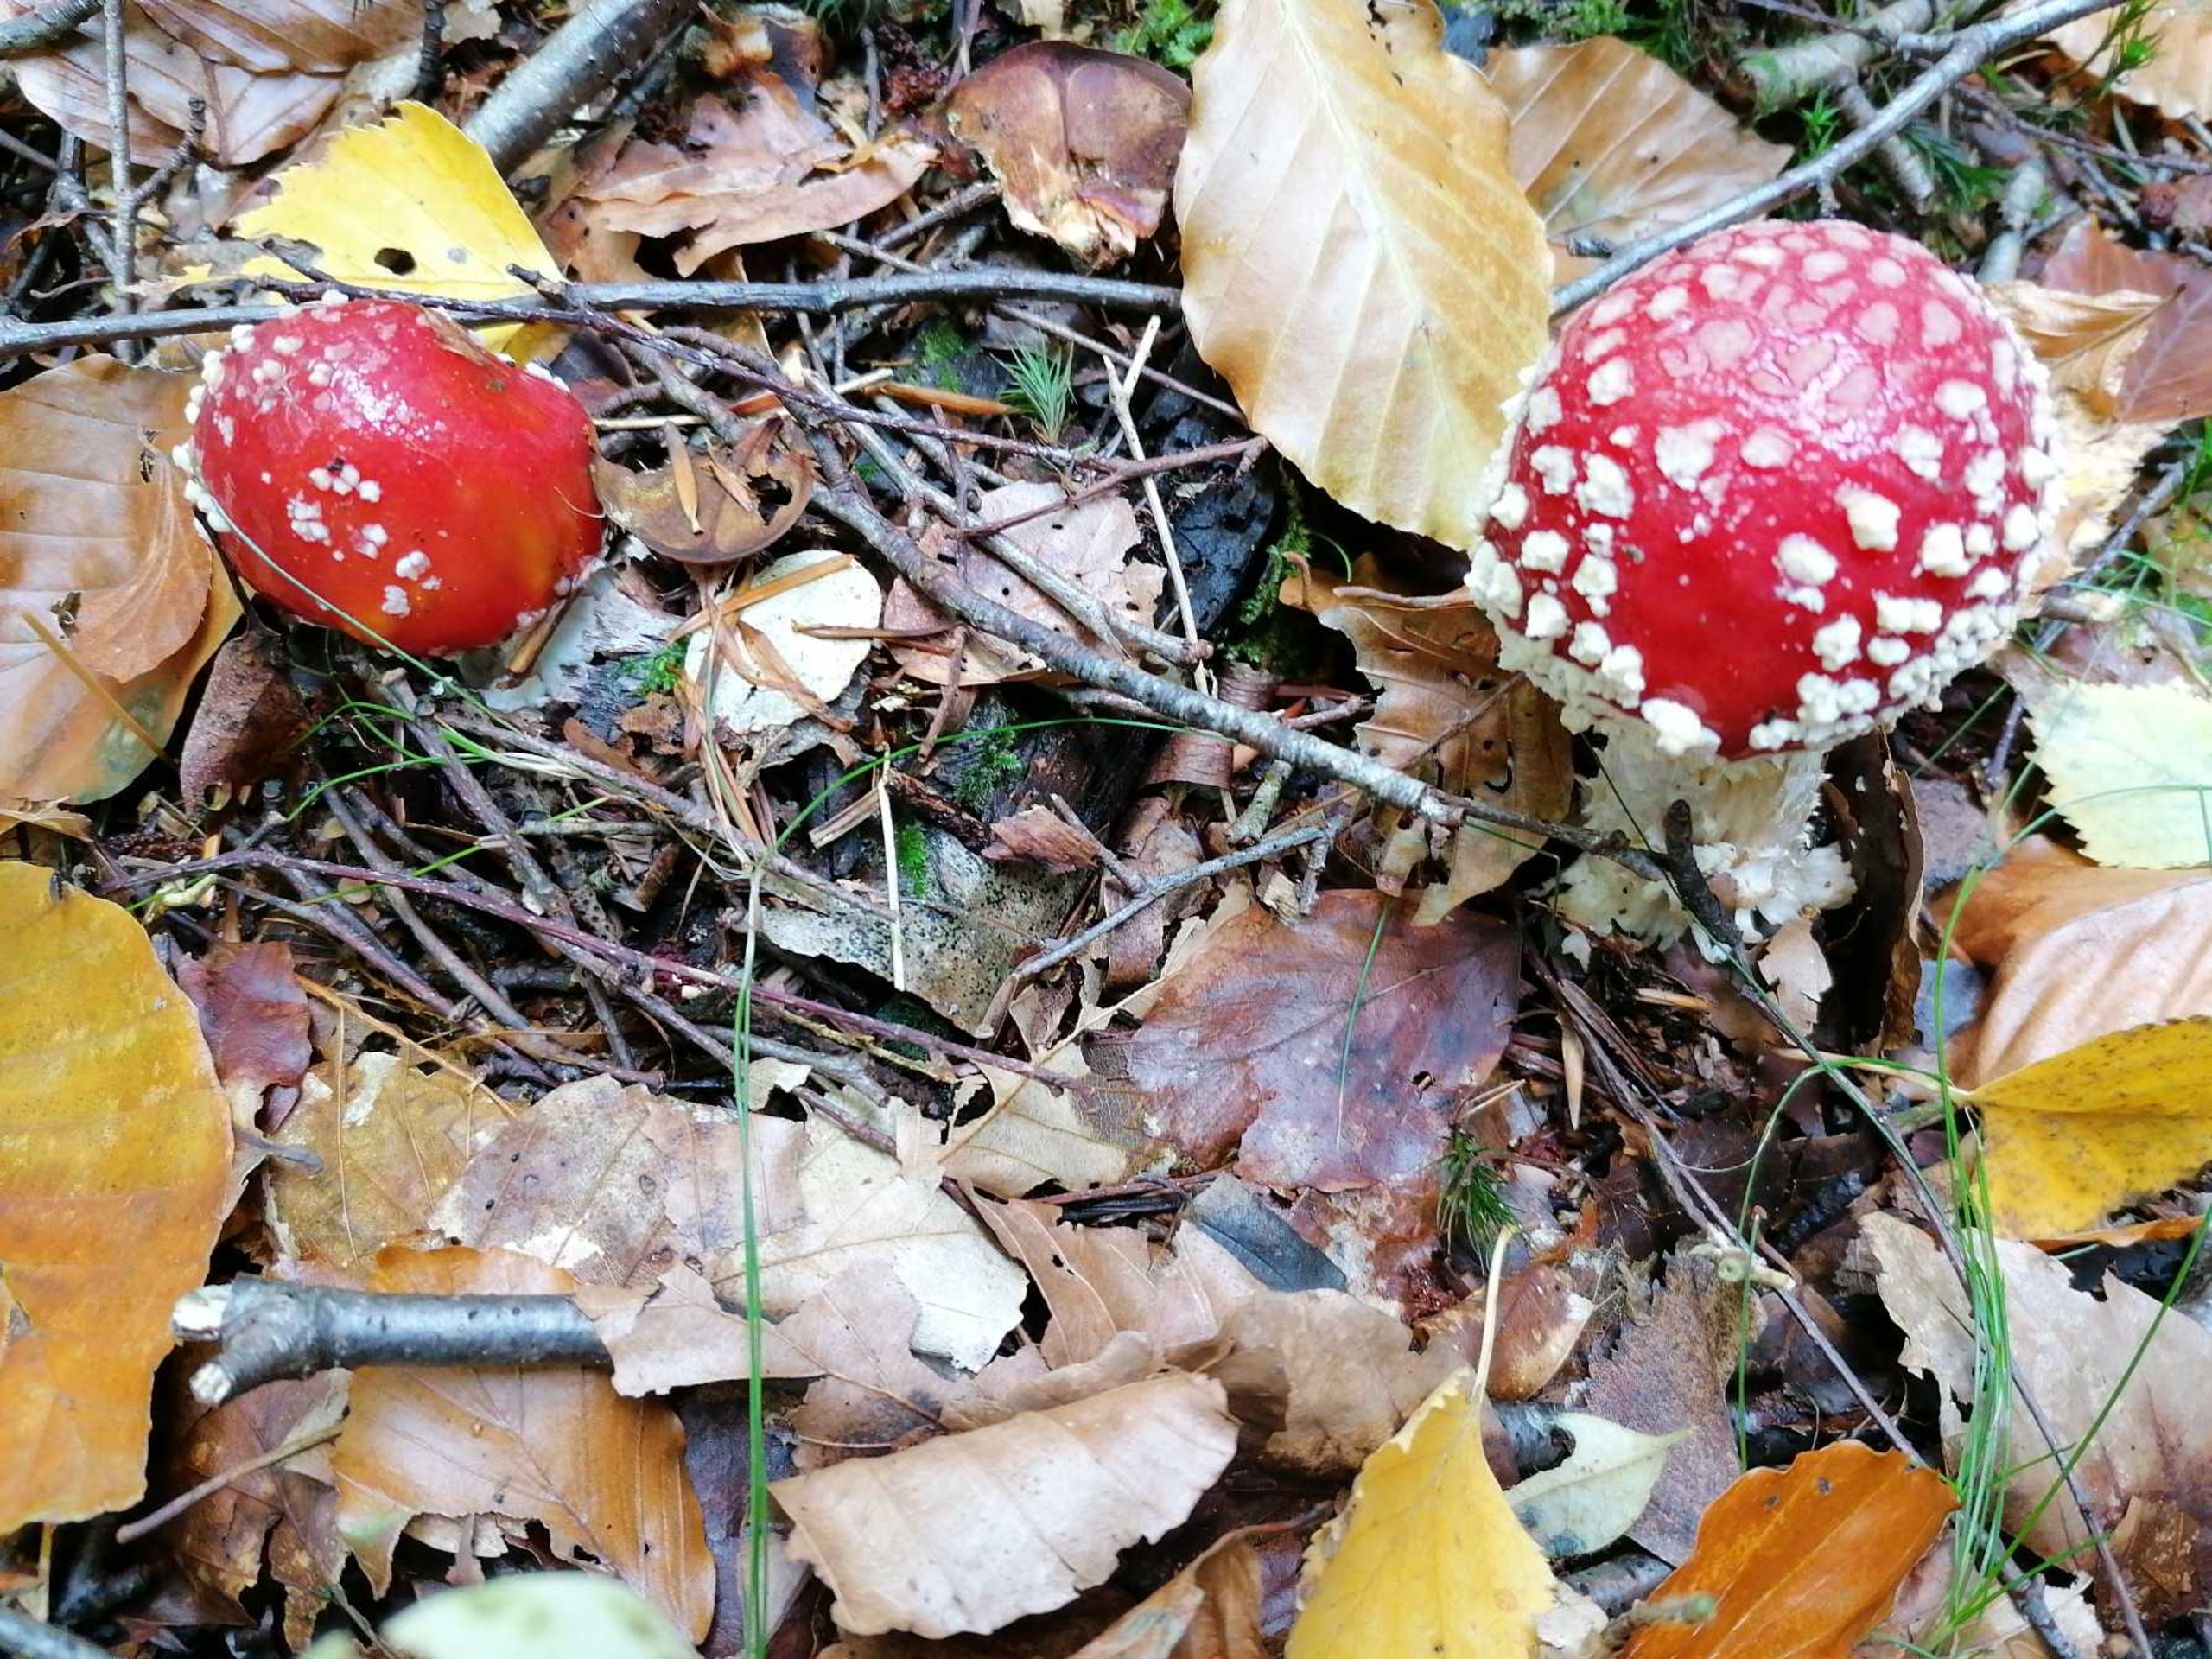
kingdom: Fungi
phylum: Basidiomycota
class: Agaricomycetes
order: Agaricales
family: Amanitaceae
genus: Amanita
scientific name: Amanita muscaria
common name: Rød fluesvamp
